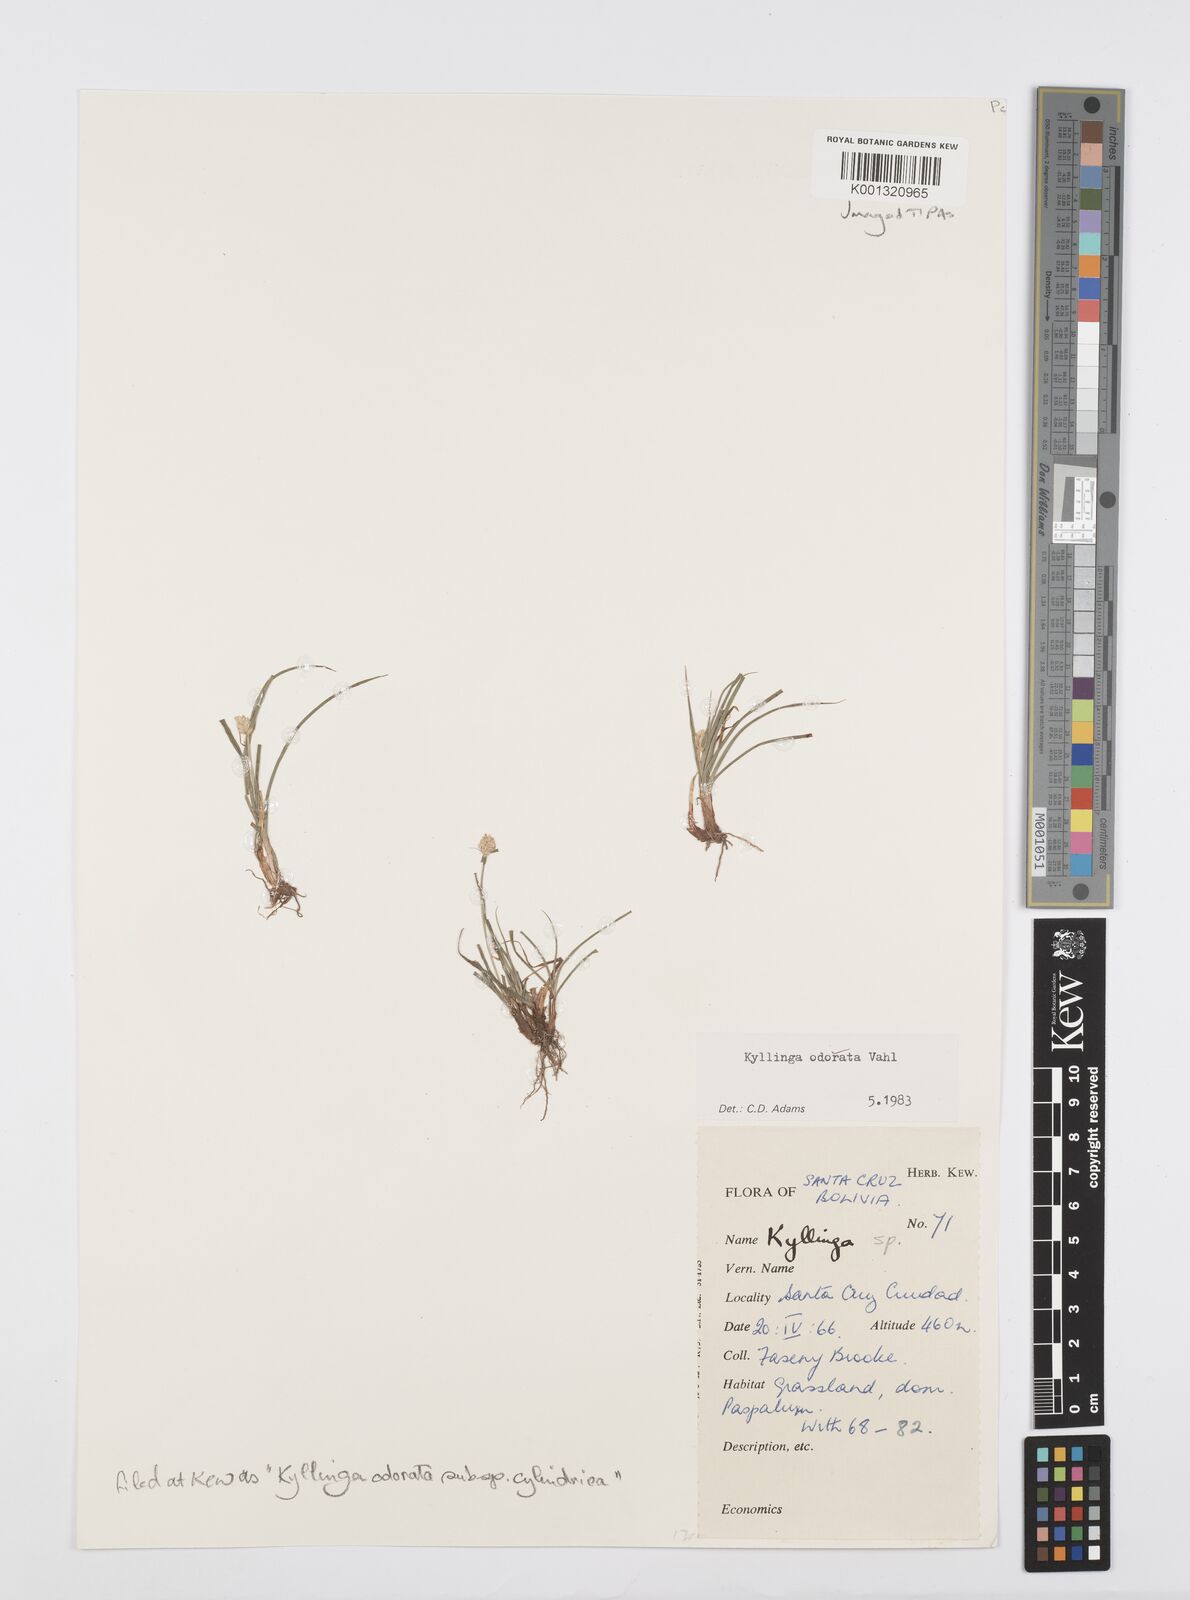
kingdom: Plantae
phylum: Tracheophyta
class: Liliopsida
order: Poales
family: Cyperaceae
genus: Cyperus
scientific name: Cyperus
